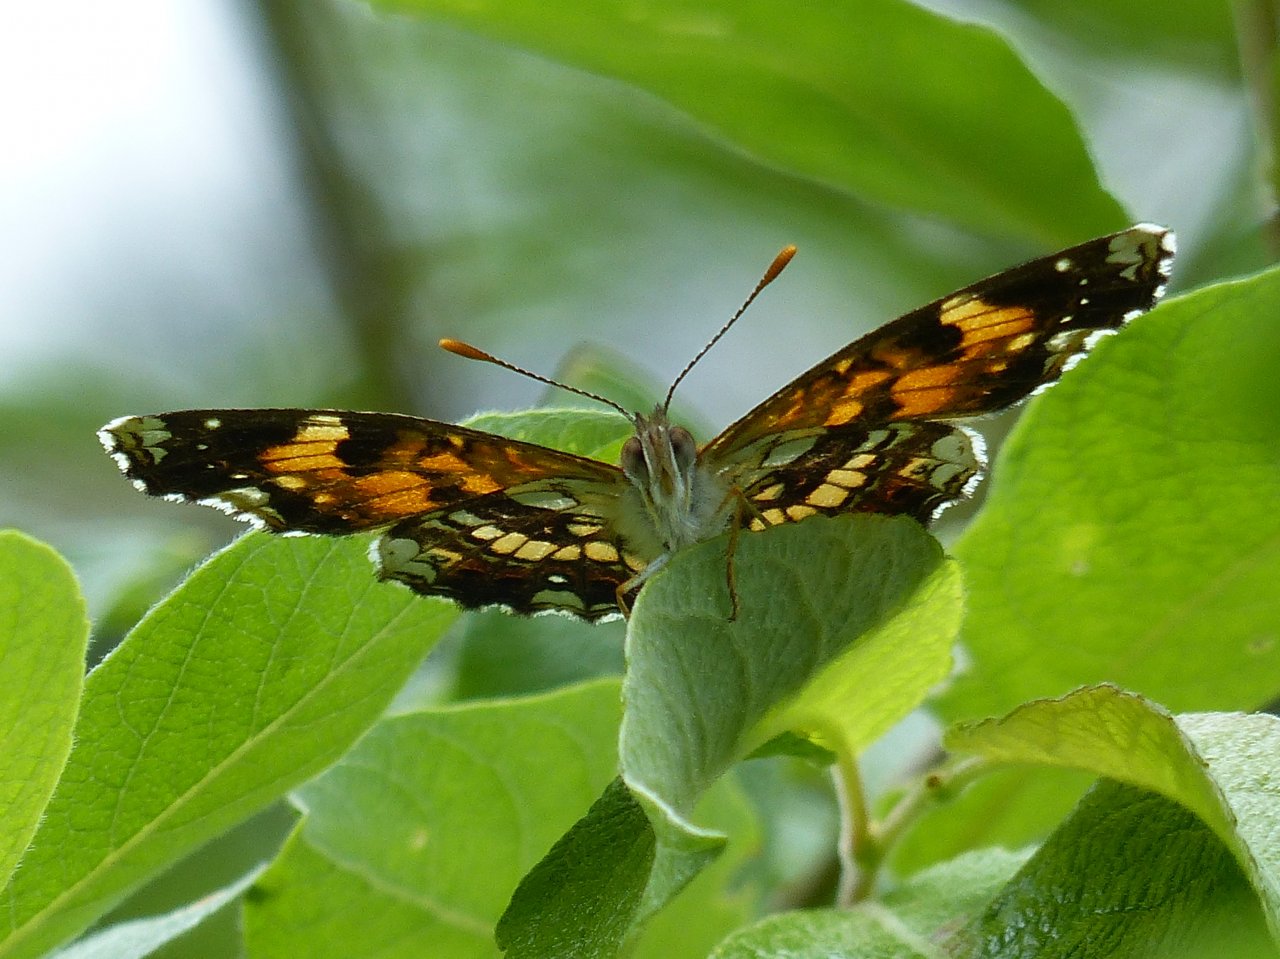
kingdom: Animalia
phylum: Arthropoda
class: Insecta
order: Lepidoptera
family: Nymphalidae
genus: Chlosyne
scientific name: Chlosyne nycteis
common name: Silvery Checkerspot
